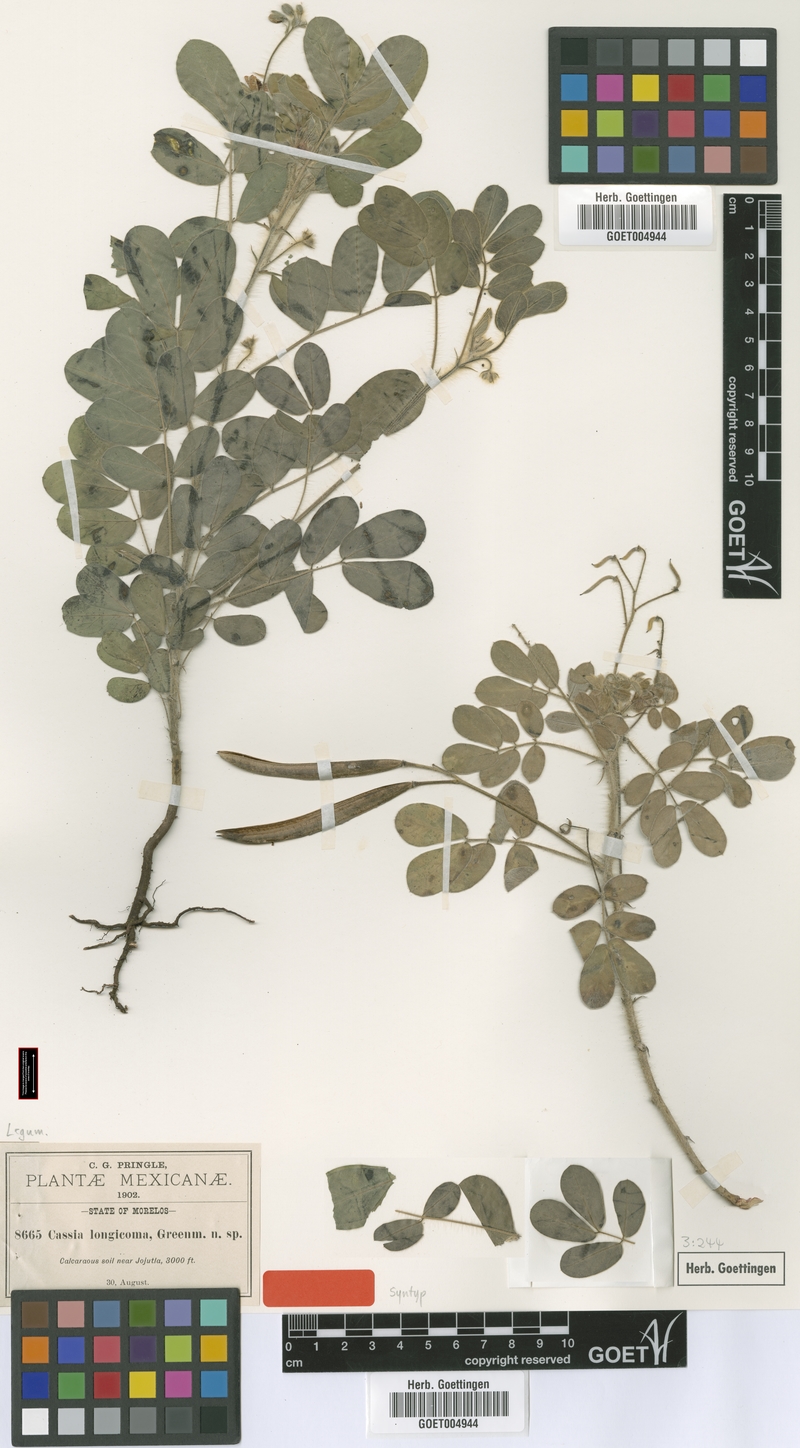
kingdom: Plantae
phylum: Tracheophyta
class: Magnoliopsida
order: Fabales
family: Fabaceae
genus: Senna
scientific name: Senna argentea
